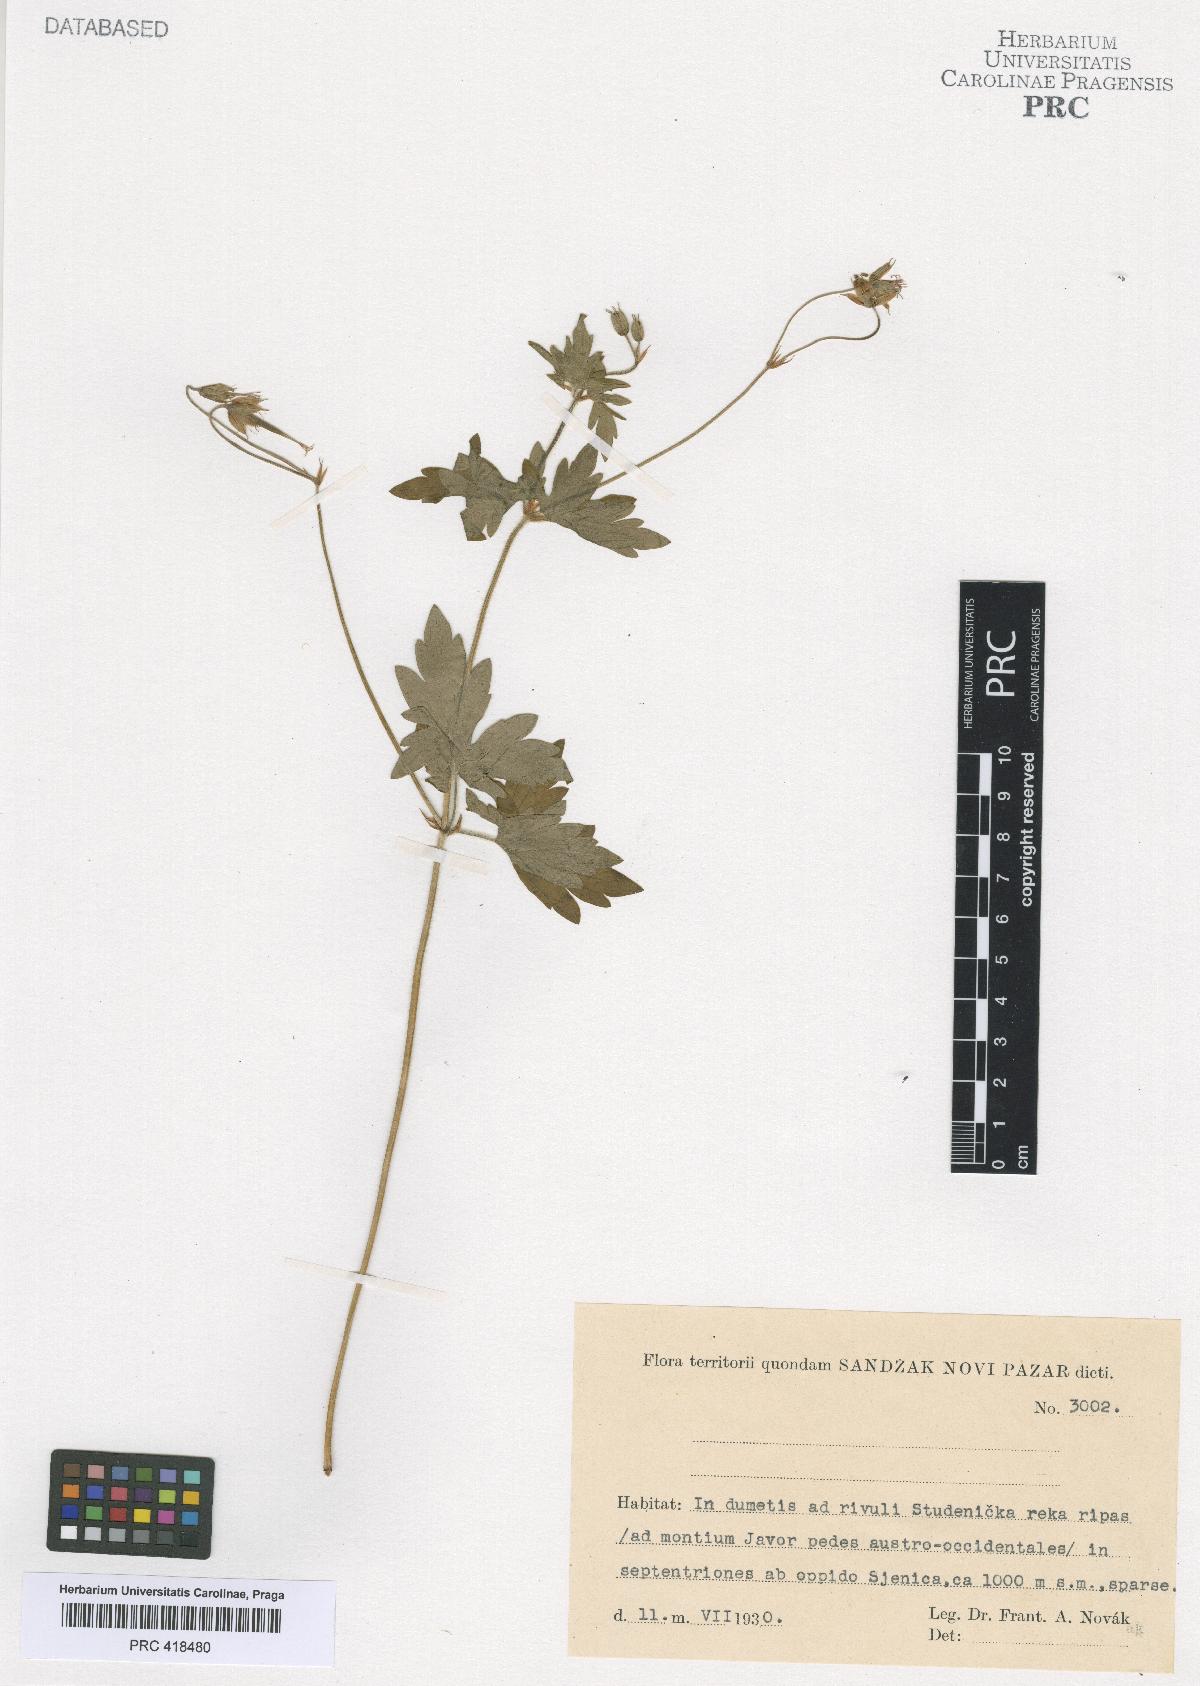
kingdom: Plantae
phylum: Tracheophyta
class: Magnoliopsida
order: Geraniales
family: Geraniaceae
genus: Geranium
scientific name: Geranium palustre
